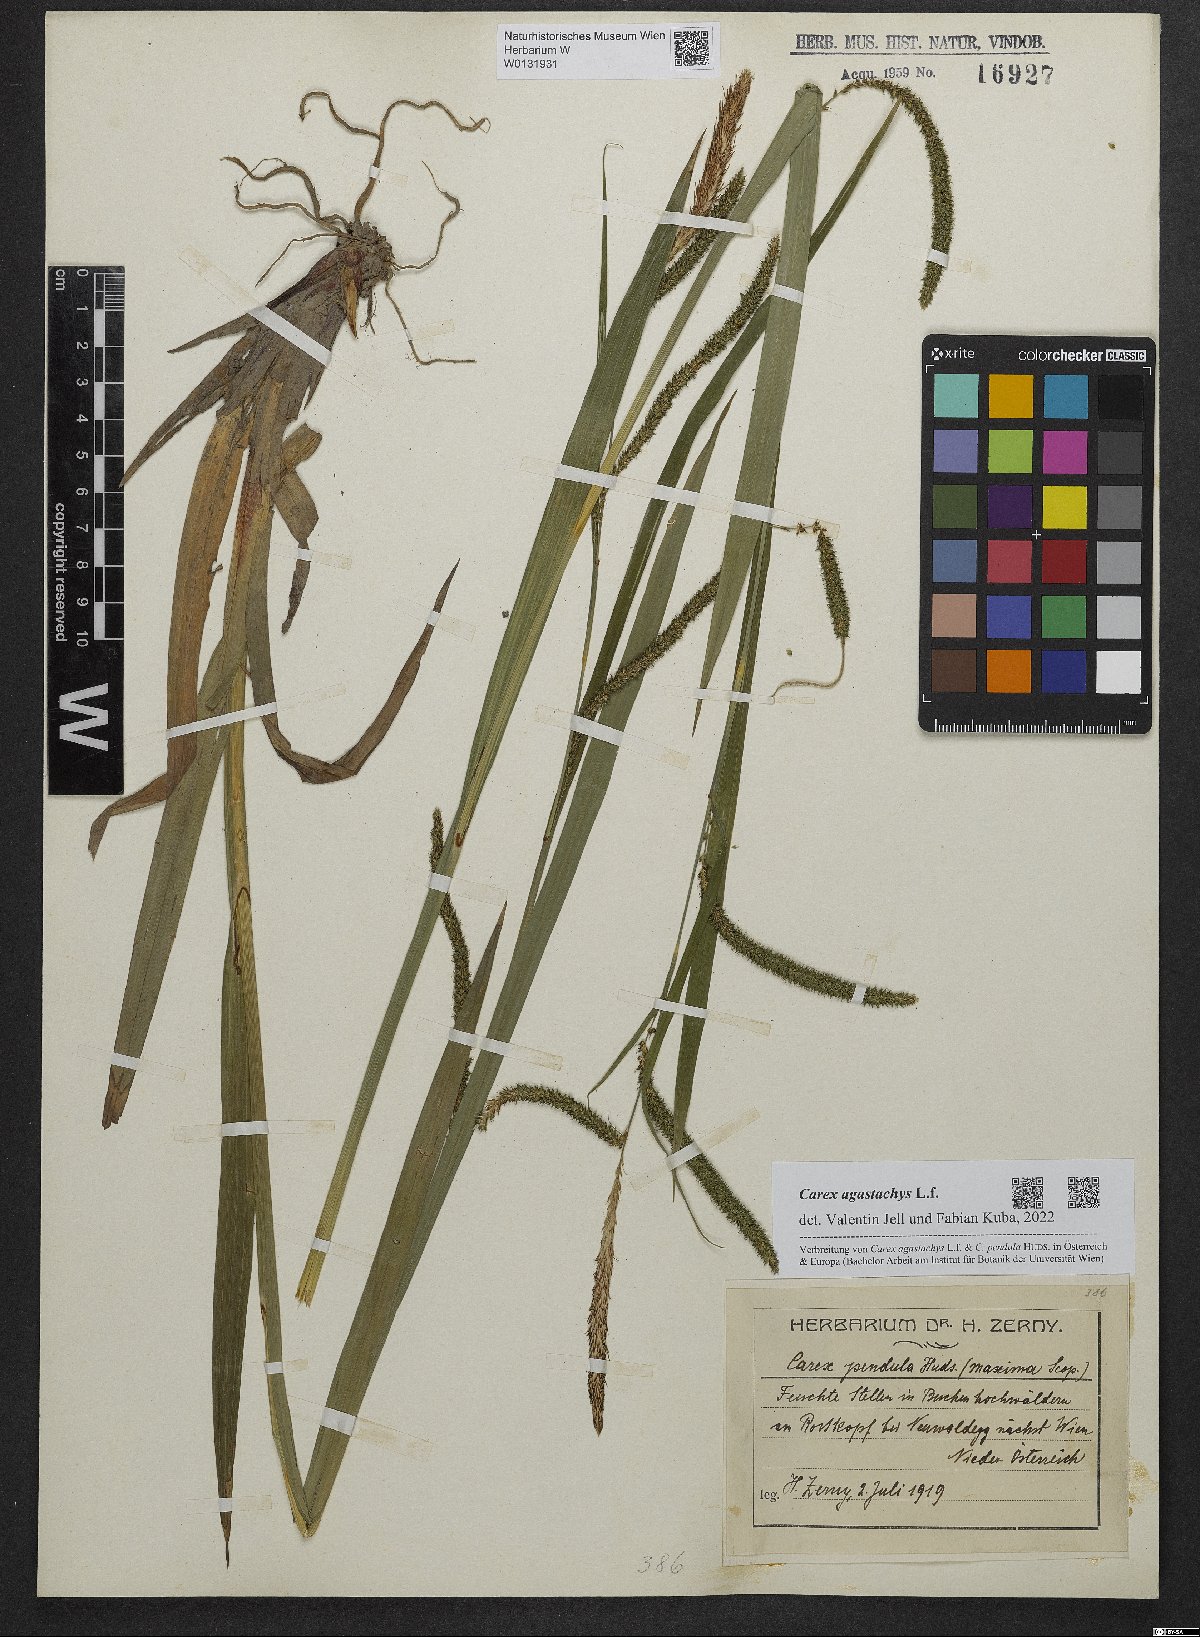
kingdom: Plantae
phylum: Tracheophyta
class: Liliopsida
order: Poales
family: Cyperaceae
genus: Carex
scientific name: Carex agastachys
